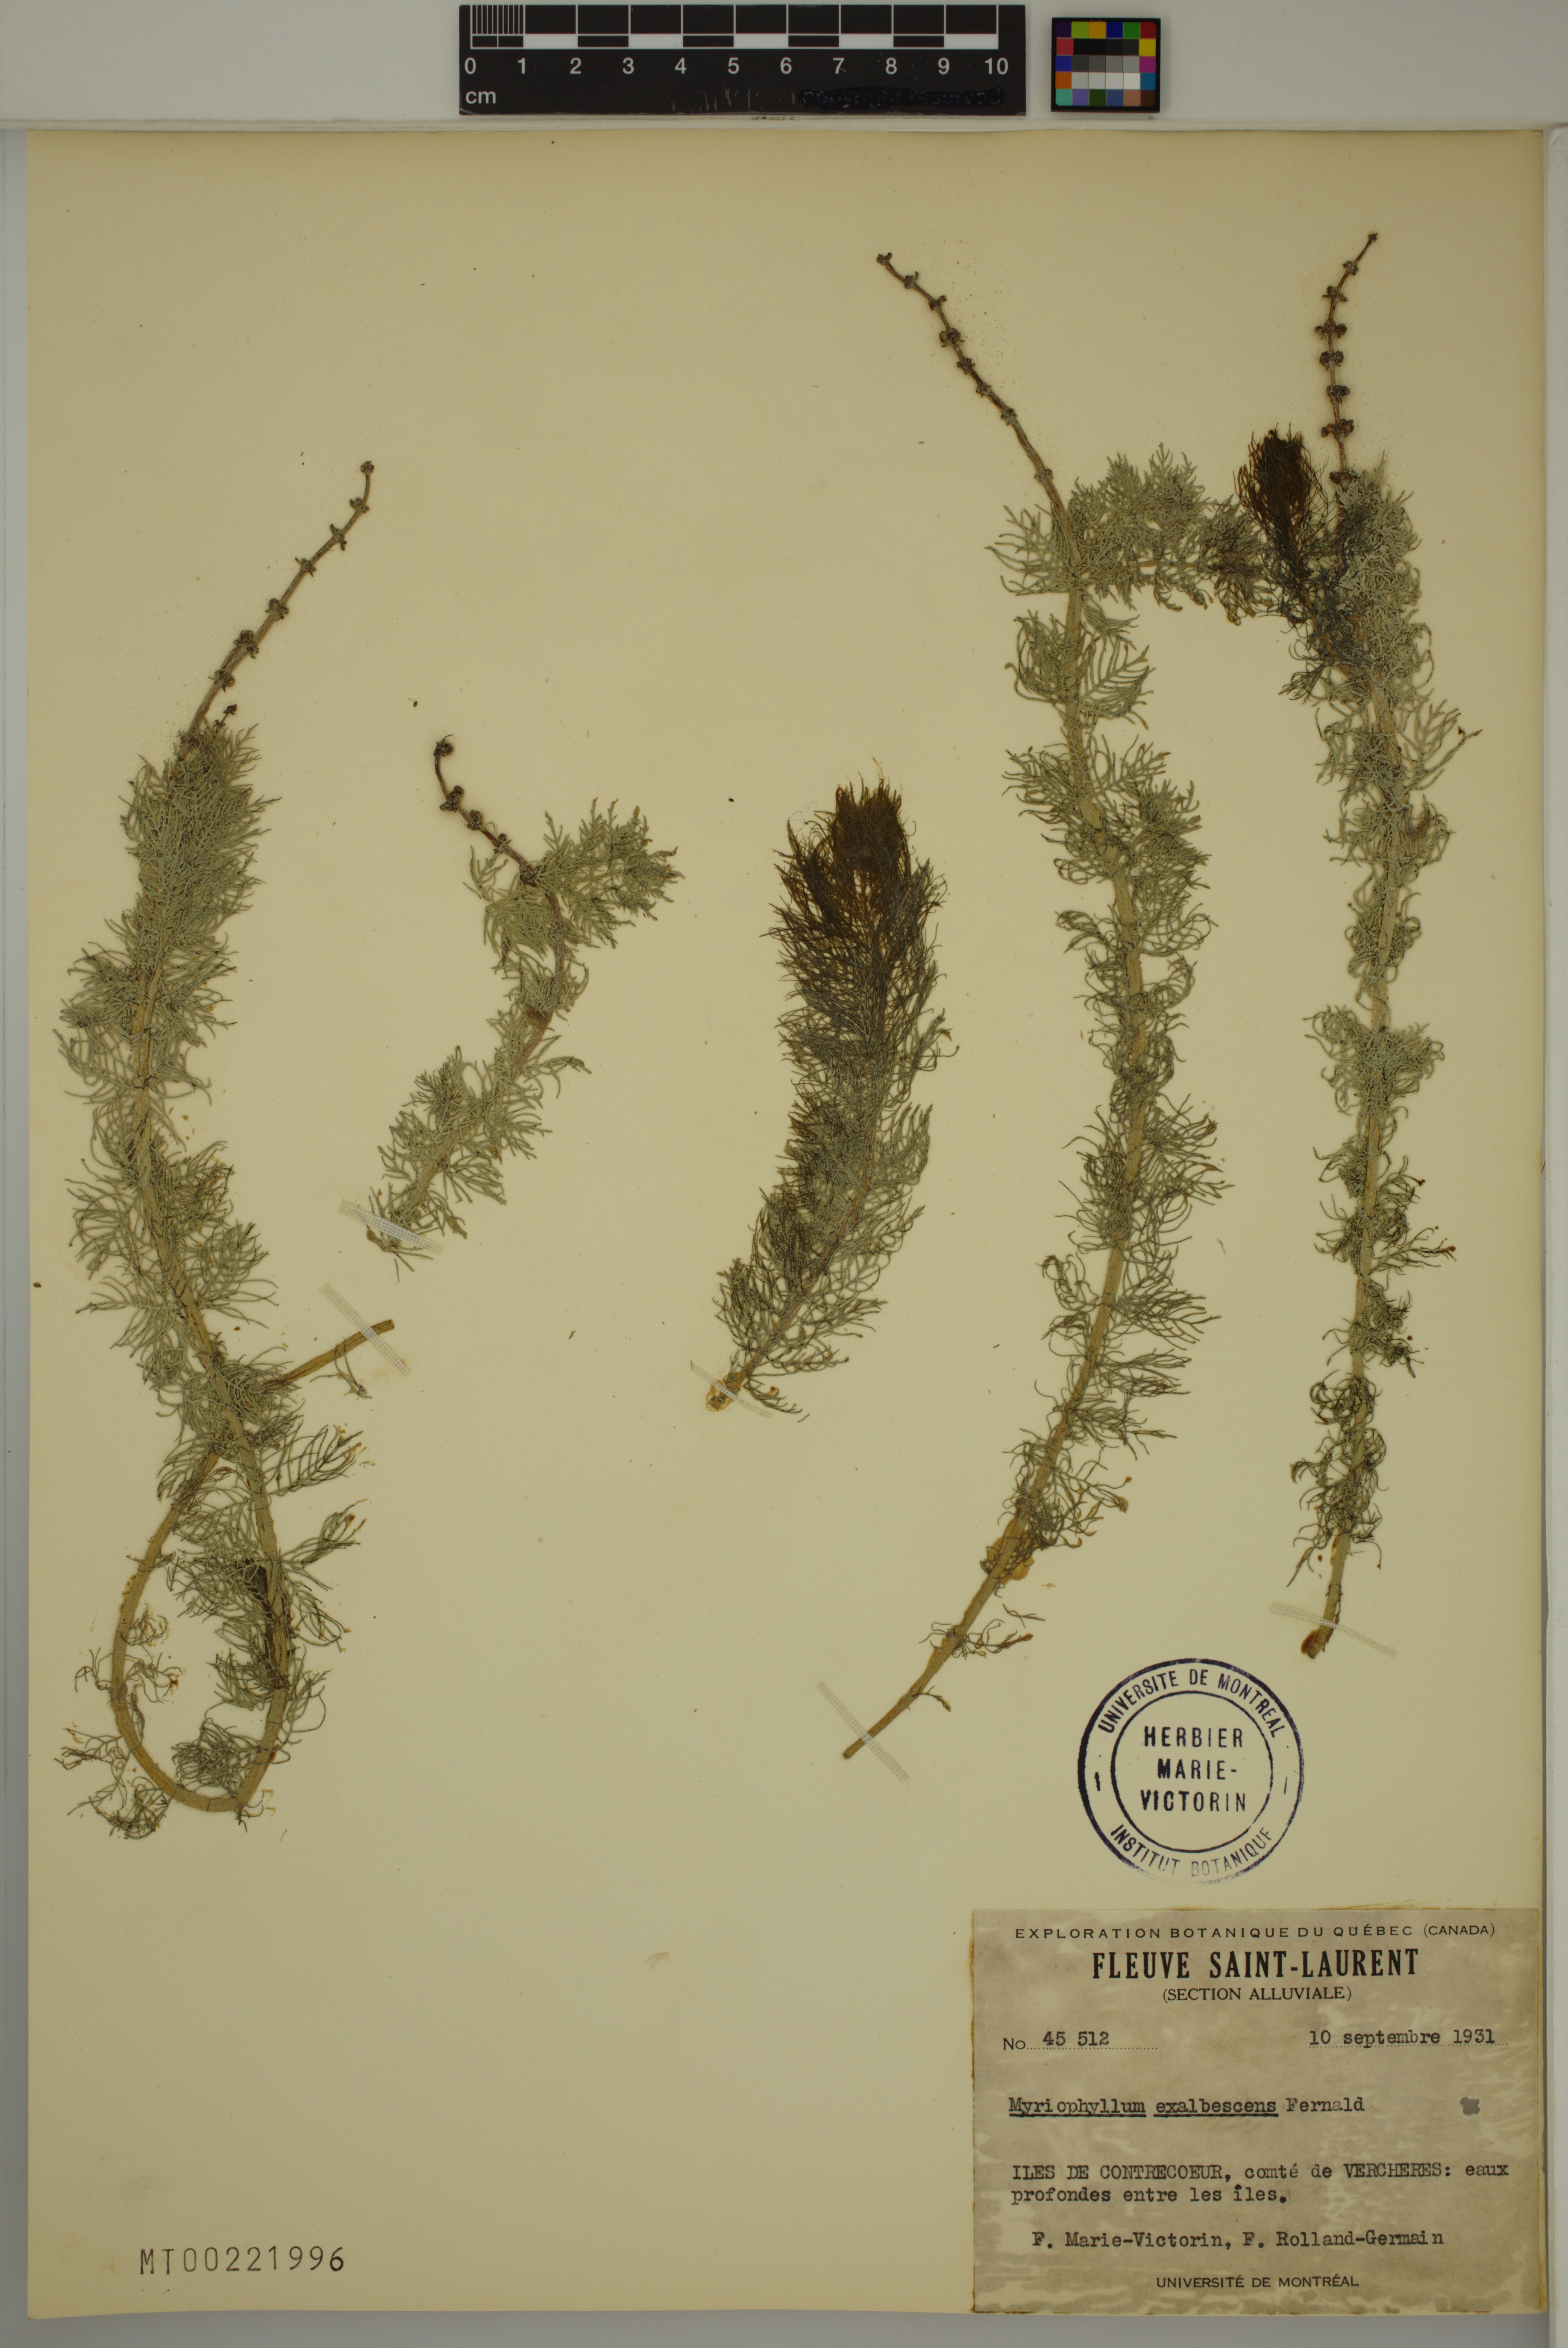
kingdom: Plantae
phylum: Tracheophyta
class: Magnoliopsida
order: Saxifragales
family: Haloragaceae
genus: Myriophyllum
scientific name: Myriophyllum sibiricum
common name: Siberian water-milfoil
